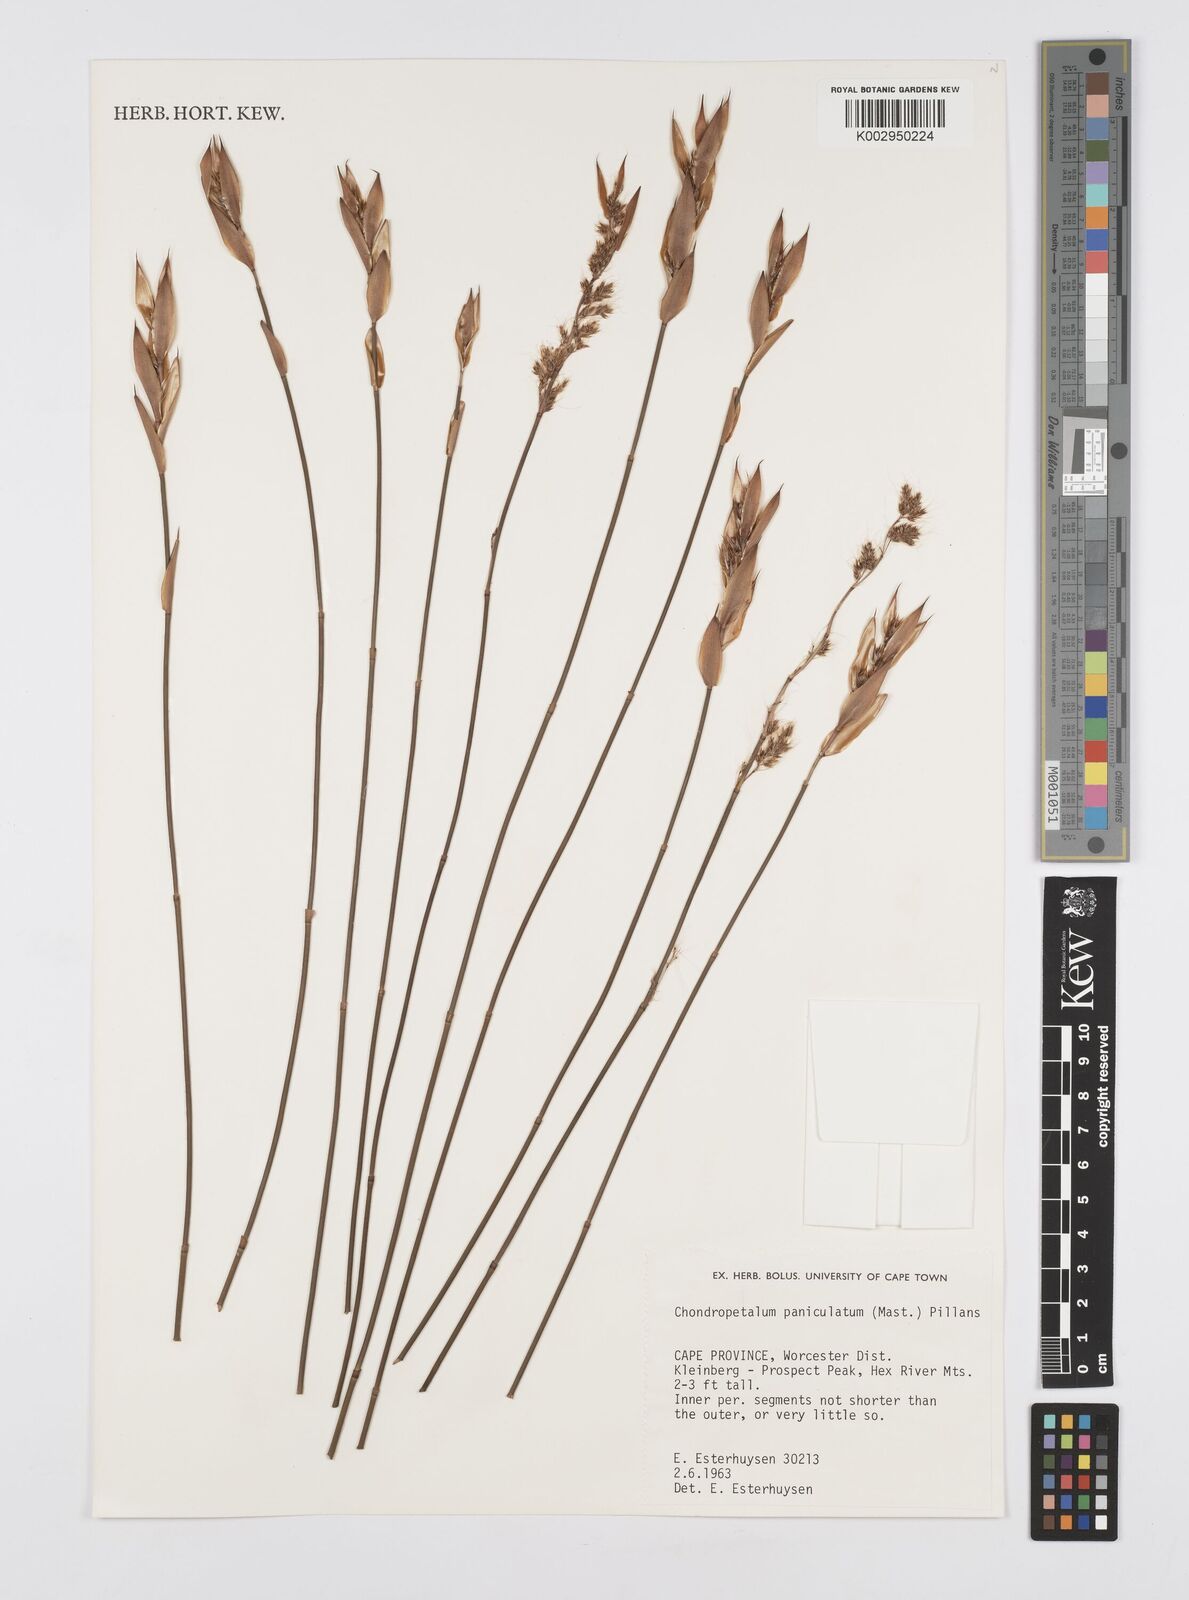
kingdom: Plantae
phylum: Tracheophyta
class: Liliopsida
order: Poales
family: Restionaceae
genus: Askidiosperma
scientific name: Askidiosperma paniculatum
